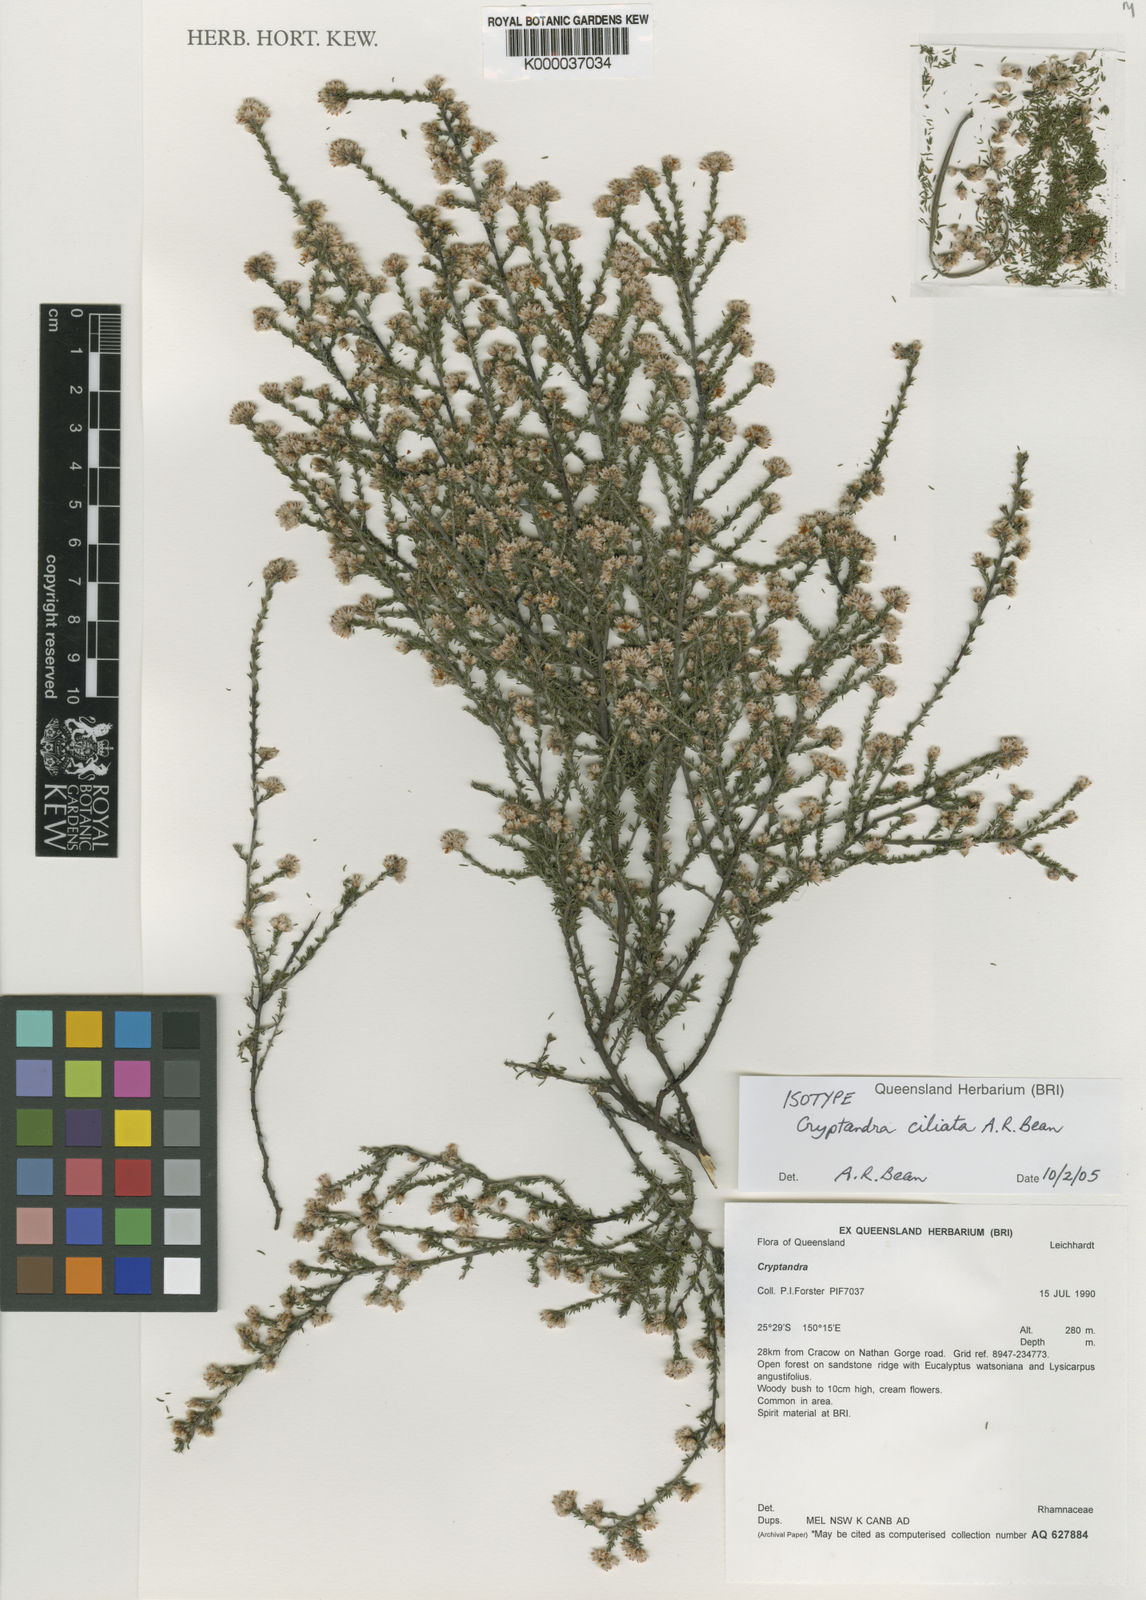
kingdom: Plantae
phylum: Tracheophyta
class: Magnoliopsida
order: Rosales
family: Rhamnaceae
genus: Cryptandra
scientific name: Cryptandra ciliata
